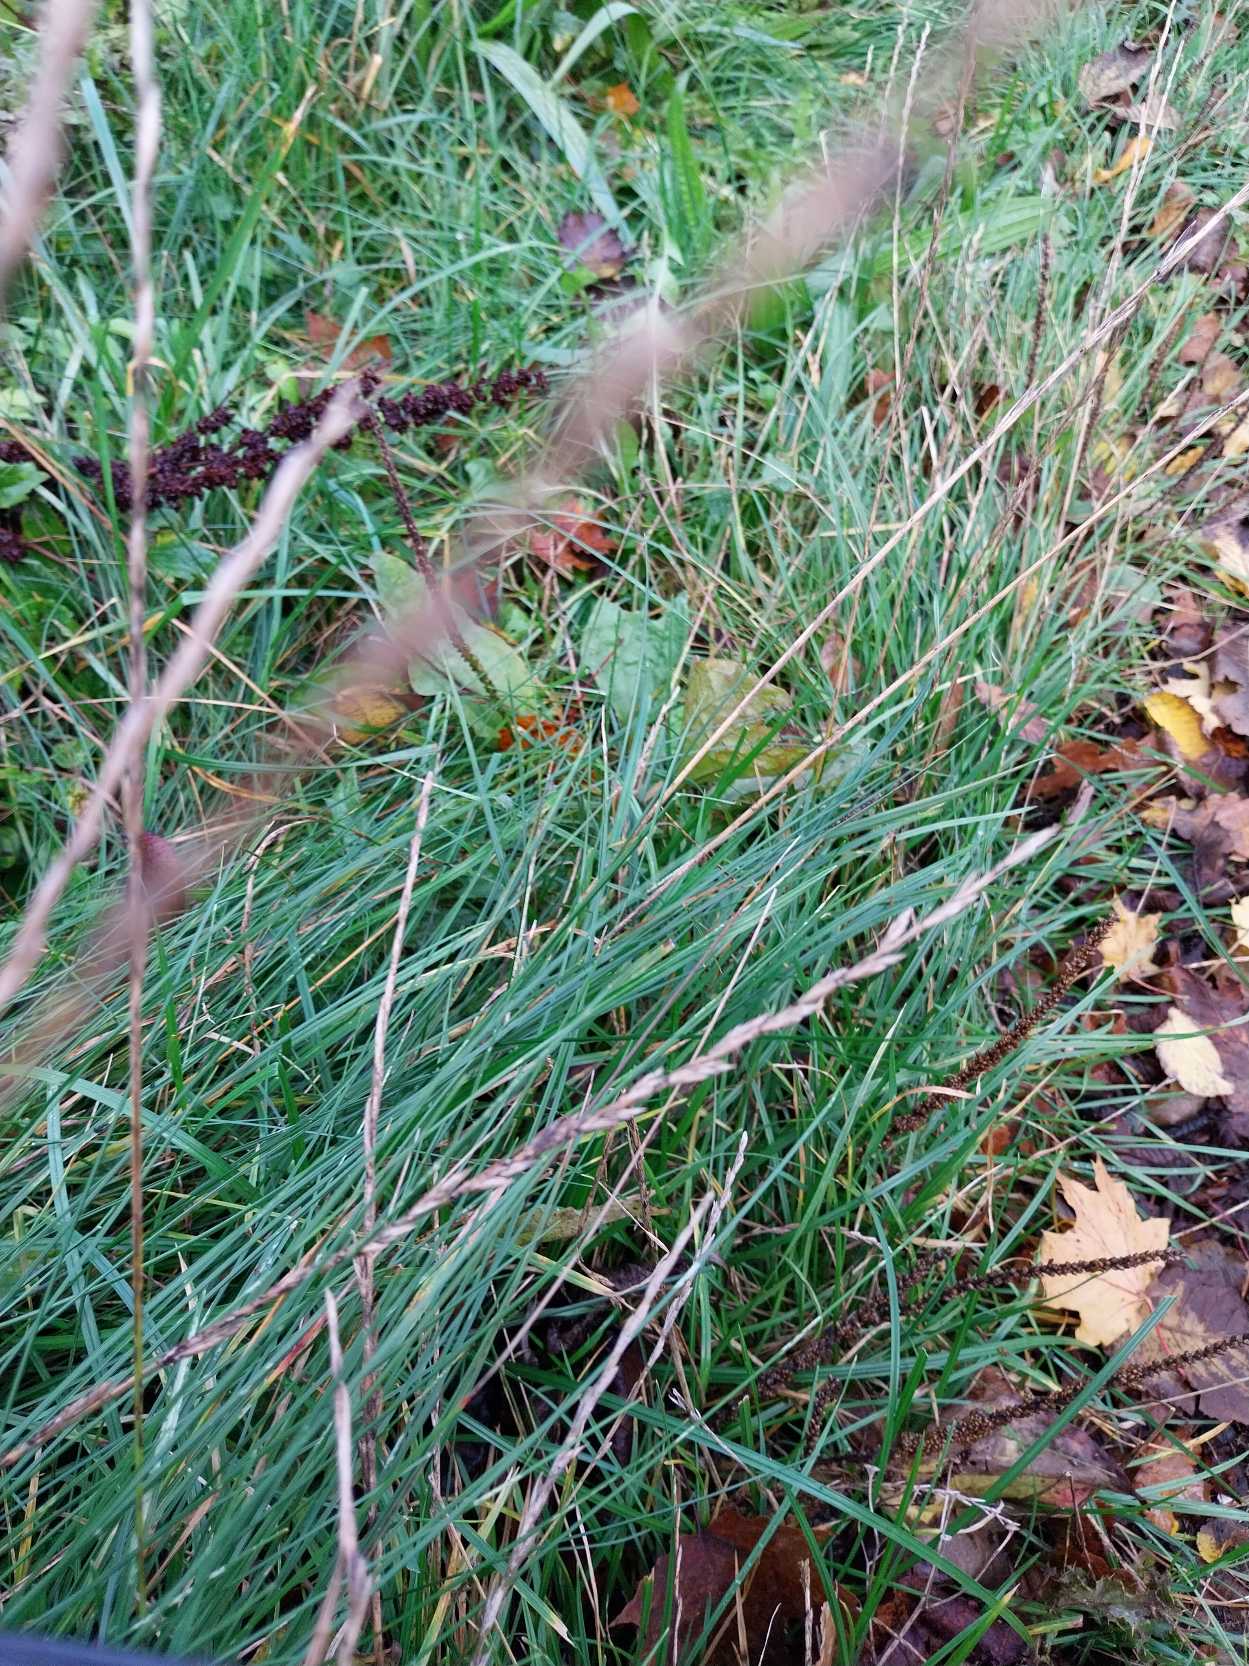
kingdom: Plantae
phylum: Tracheophyta
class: Liliopsida
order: Poales
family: Poaceae
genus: Lolium
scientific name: Lolium perenne
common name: Almindelig rajgræs
